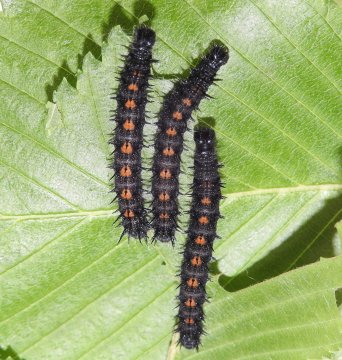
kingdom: Animalia
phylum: Arthropoda
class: Insecta
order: Lepidoptera
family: Nymphalidae
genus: Nymphalis
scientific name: Nymphalis antiopa
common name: Mourning Cloak
